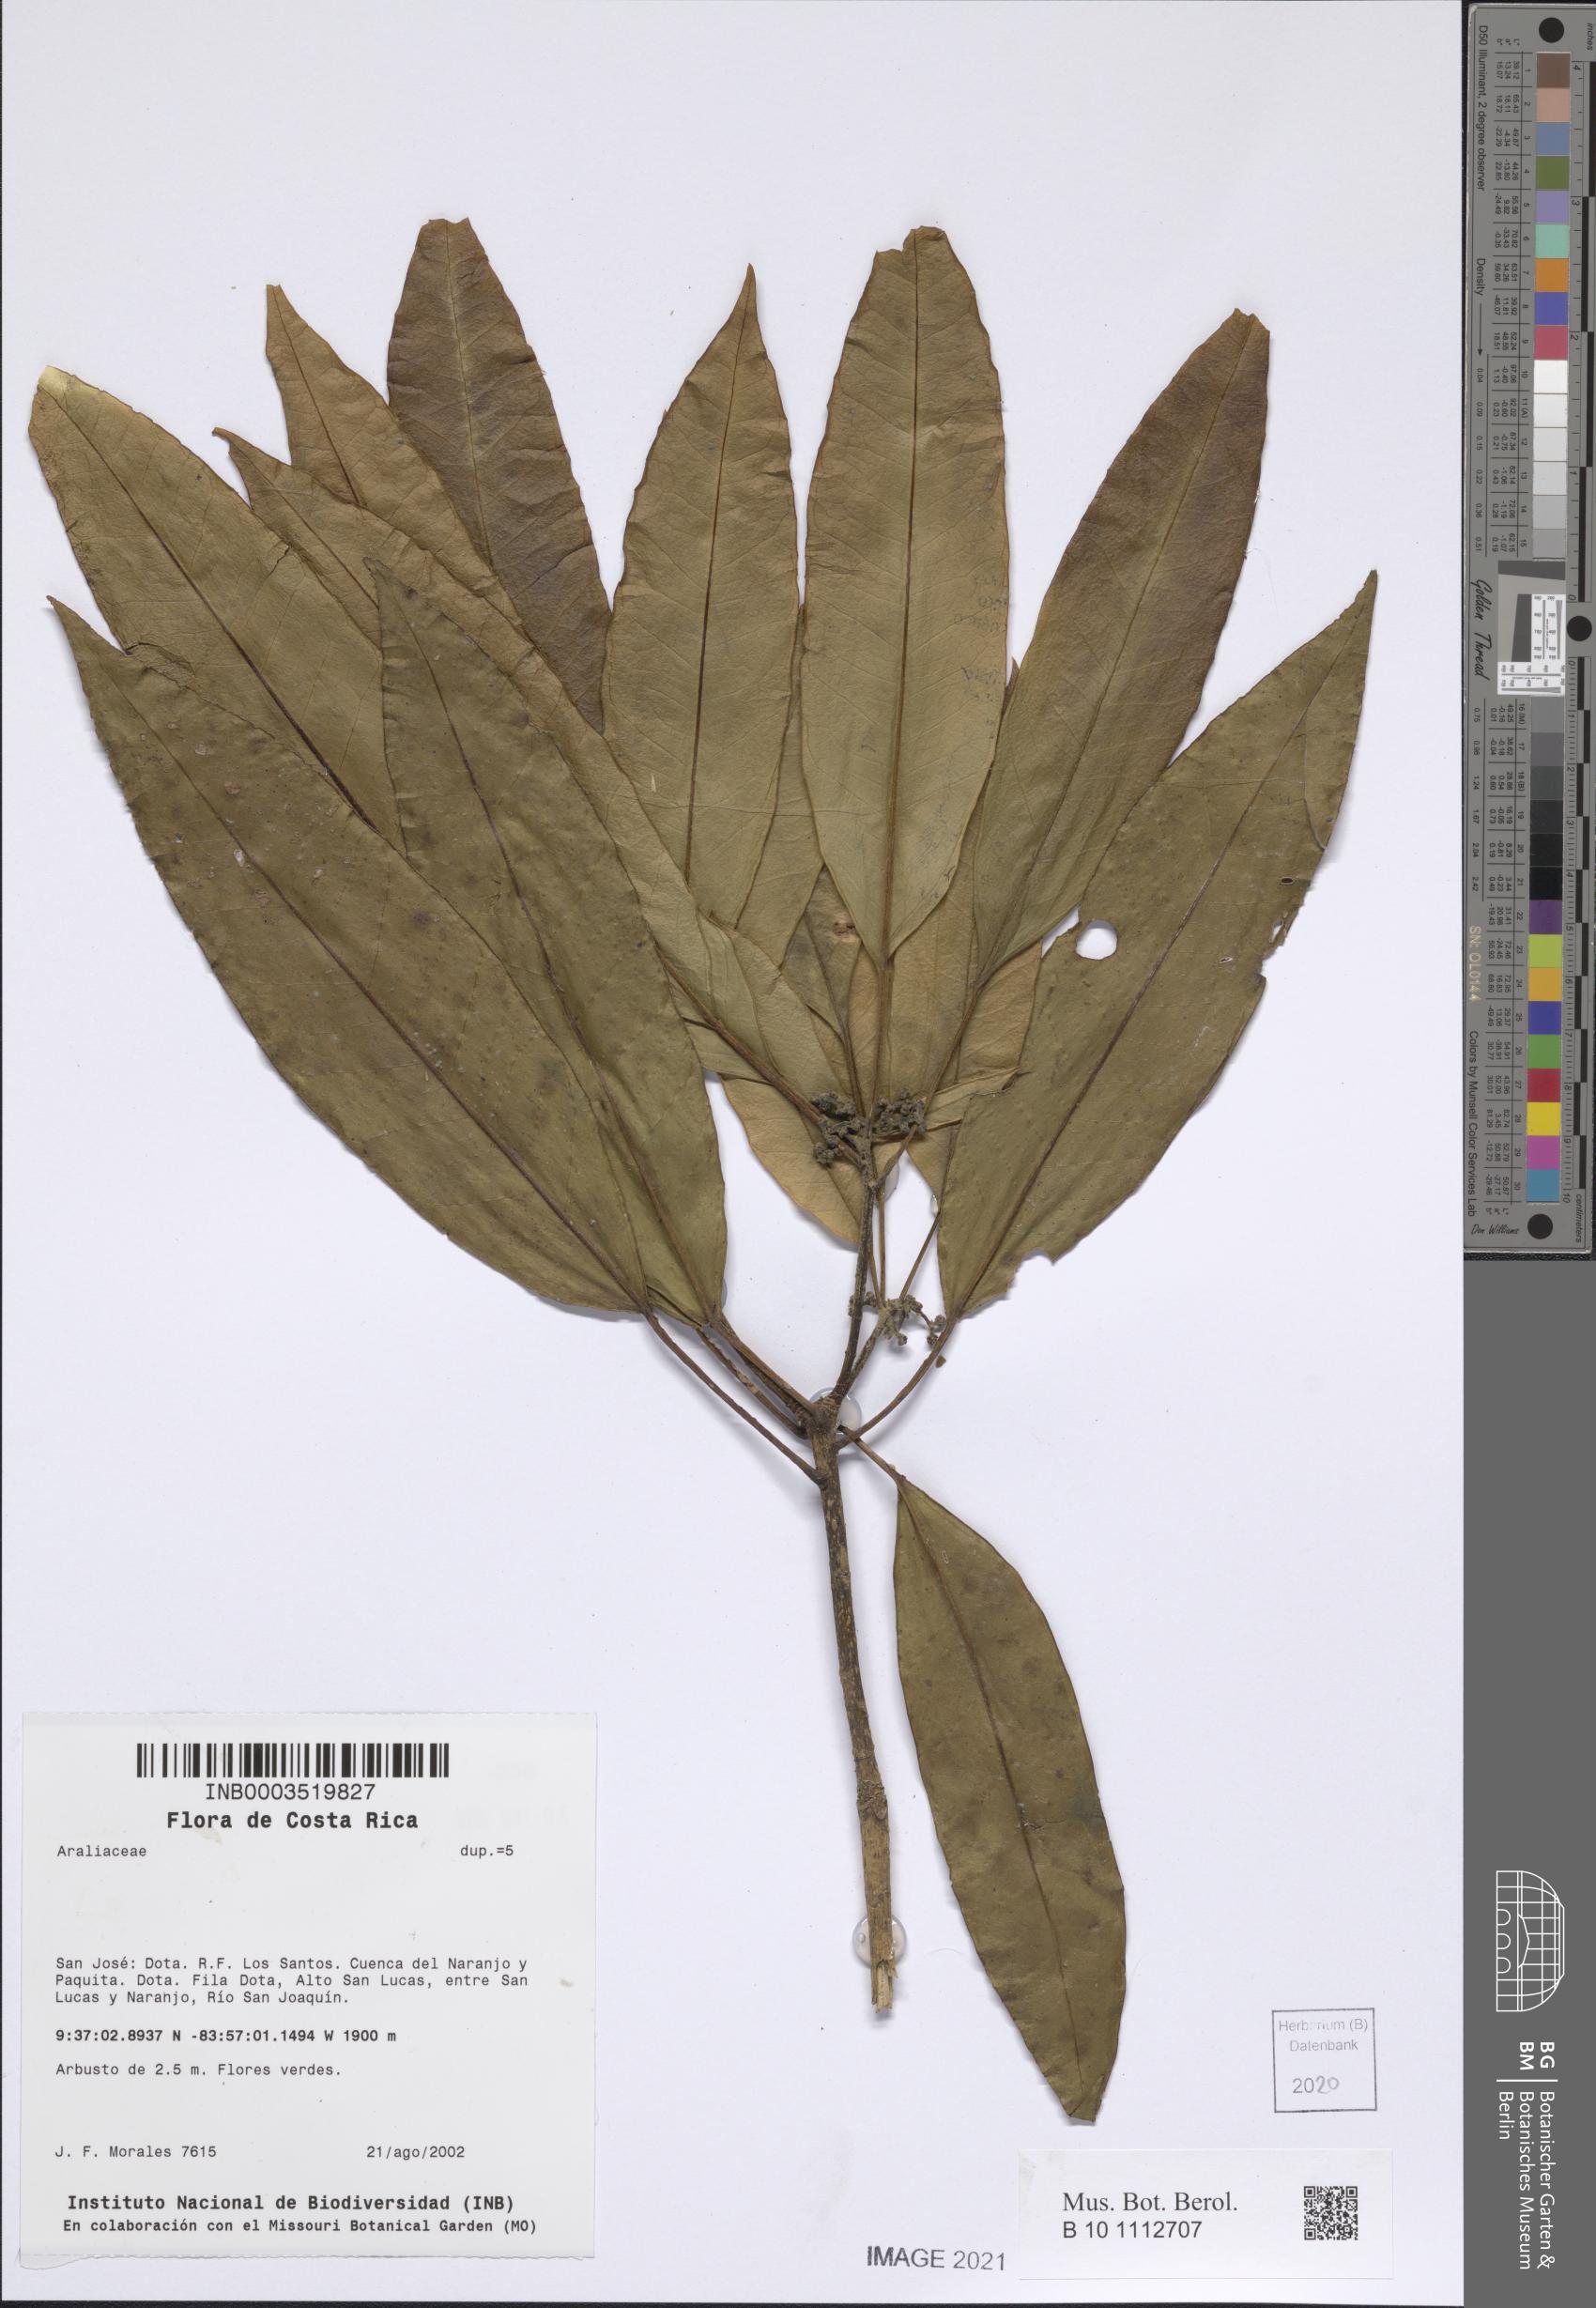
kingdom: Plantae
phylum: Tracheophyta
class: Magnoliopsida
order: Apiales
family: Araliaceae
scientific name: Araliaceae
